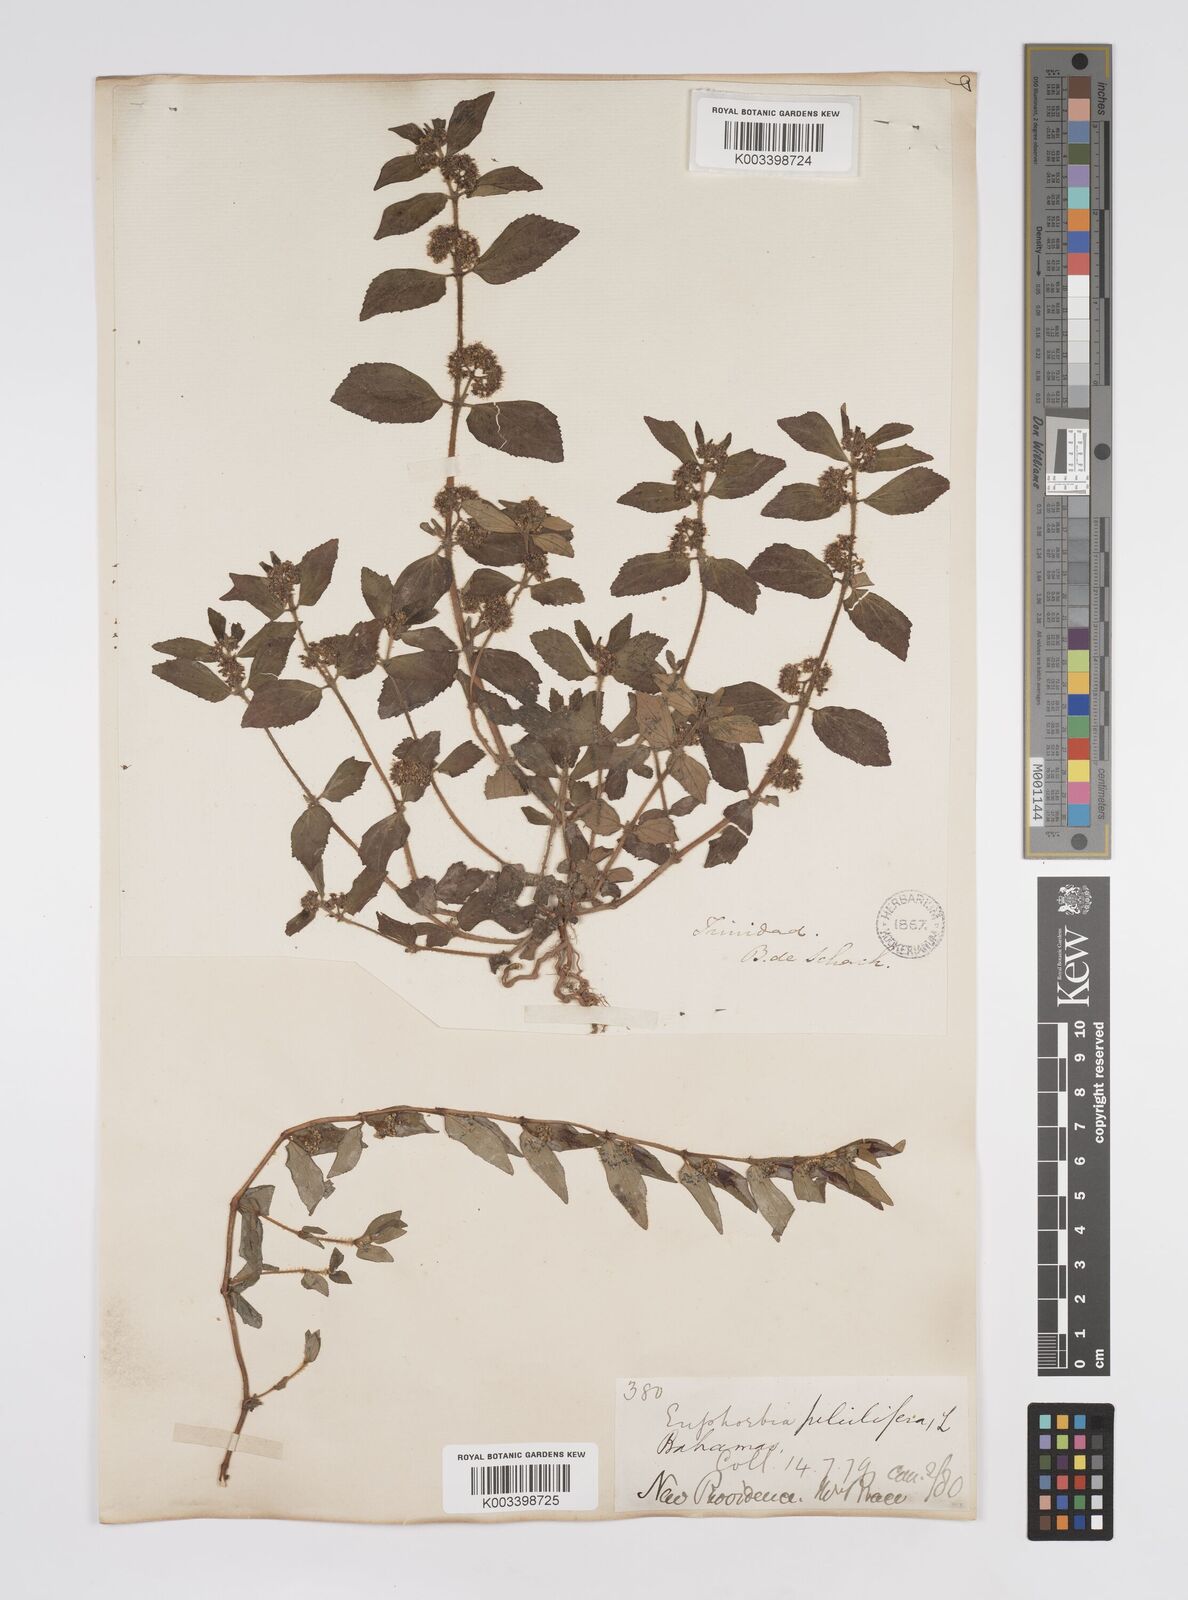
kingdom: Plantae
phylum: Tracheophyta
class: Magnoliopsida
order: Malpighiales
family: Euphorbiaceae
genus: Euphorbia
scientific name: Euphorbia hirta
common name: Pillpod sandmat
